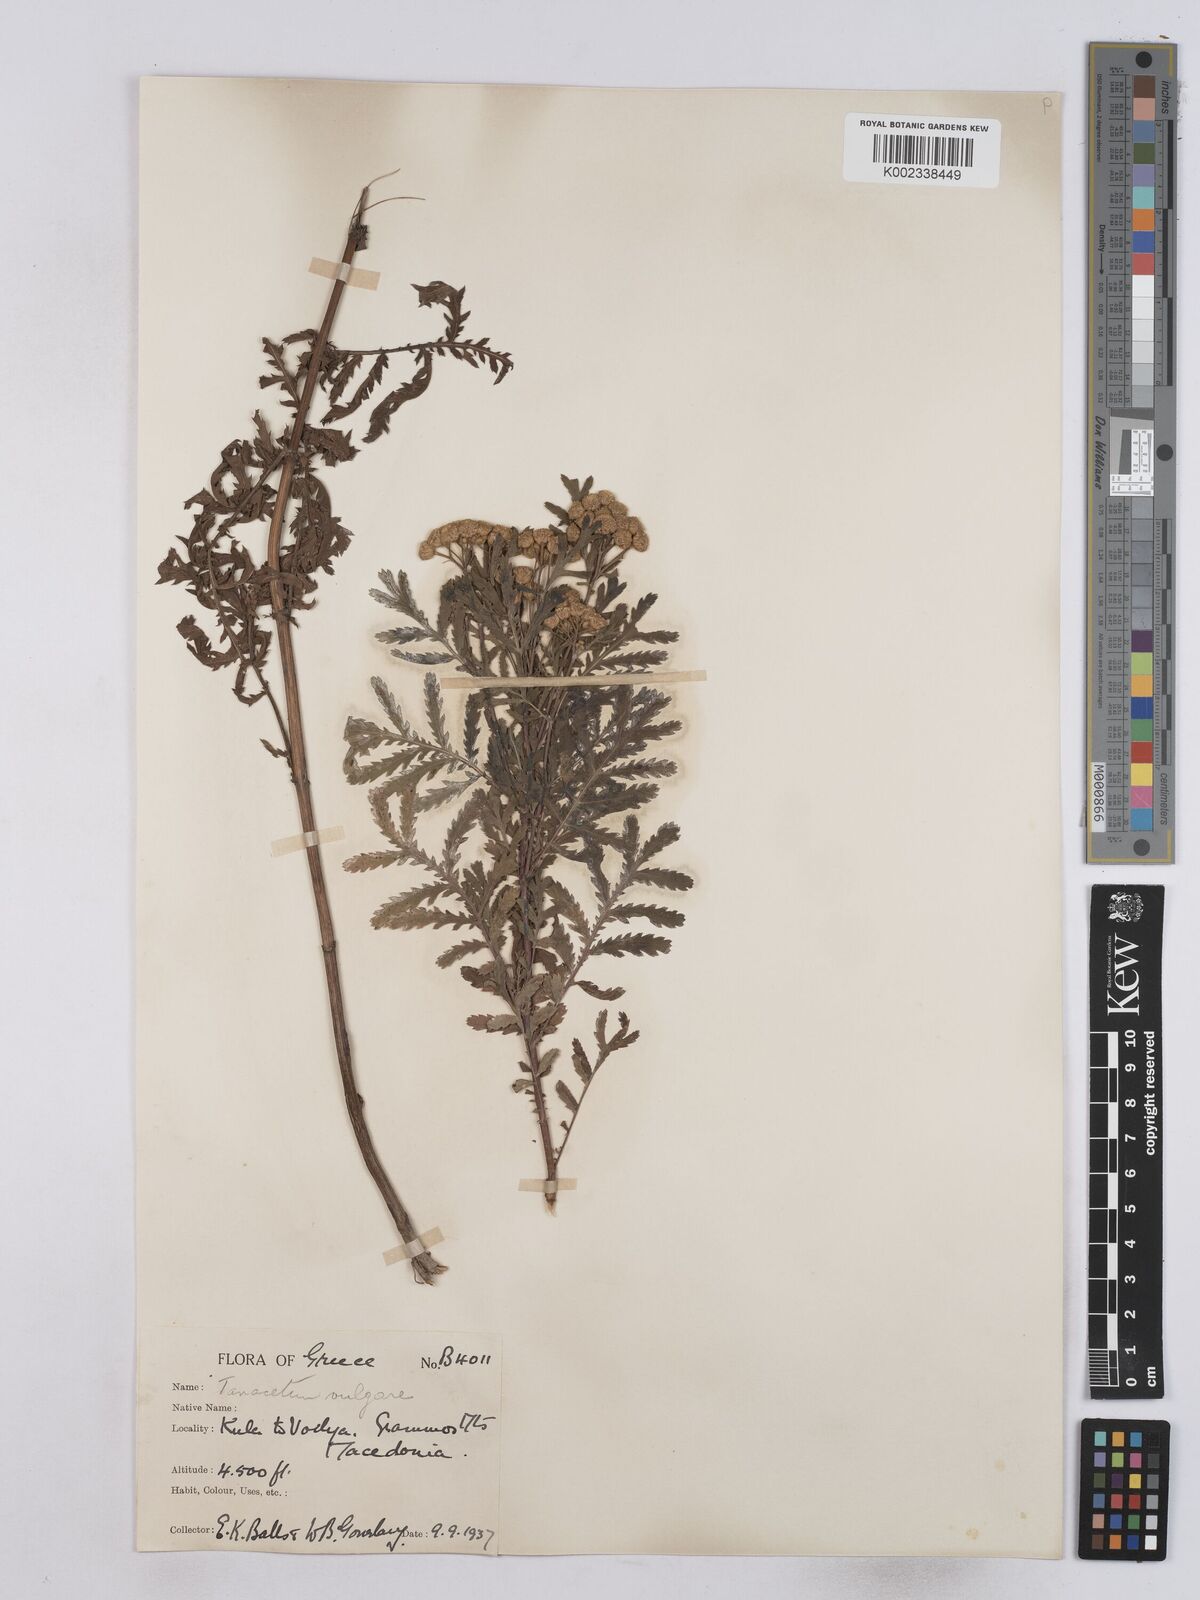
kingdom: Plantae
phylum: Tracheophyta
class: Magnoliopsida
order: Asterales
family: Asteraceae
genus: Tanacetum
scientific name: Tanacetum vulgare
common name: Common tansy
